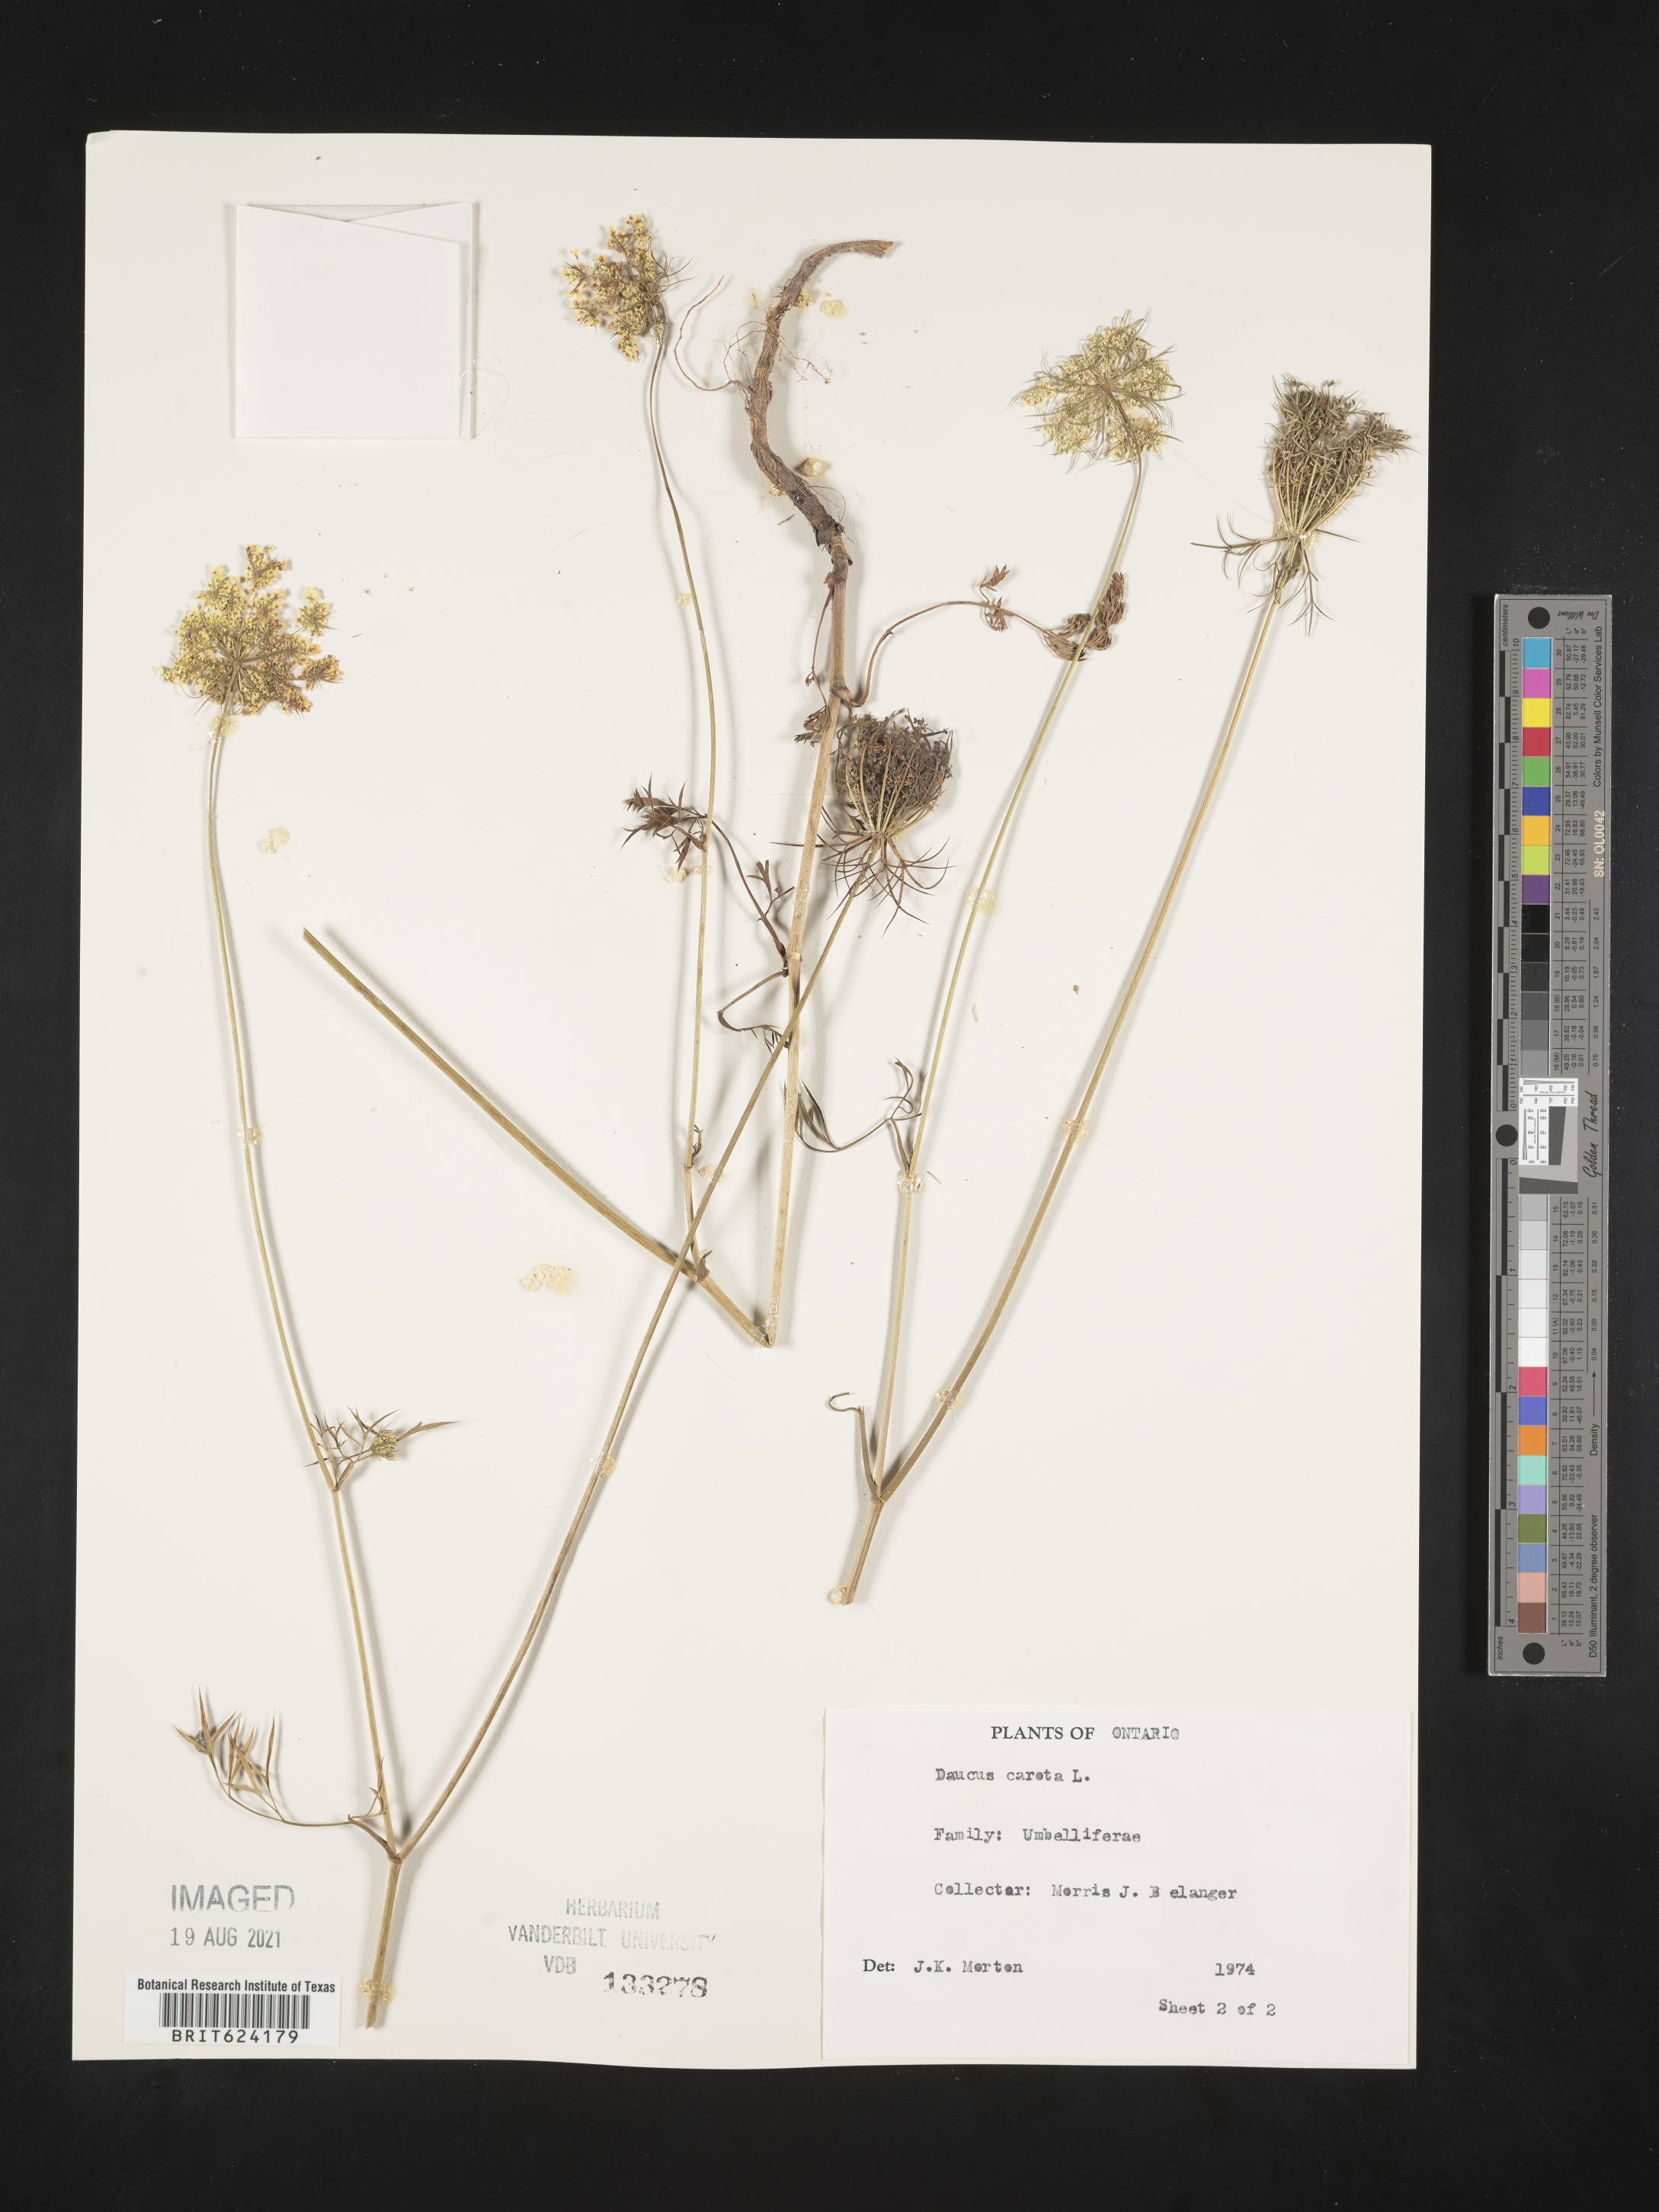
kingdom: Plantae
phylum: Tracheophyta
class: Magnoliopsida
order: Apiales
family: Apiaceae
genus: Daucus
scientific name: Daucus
